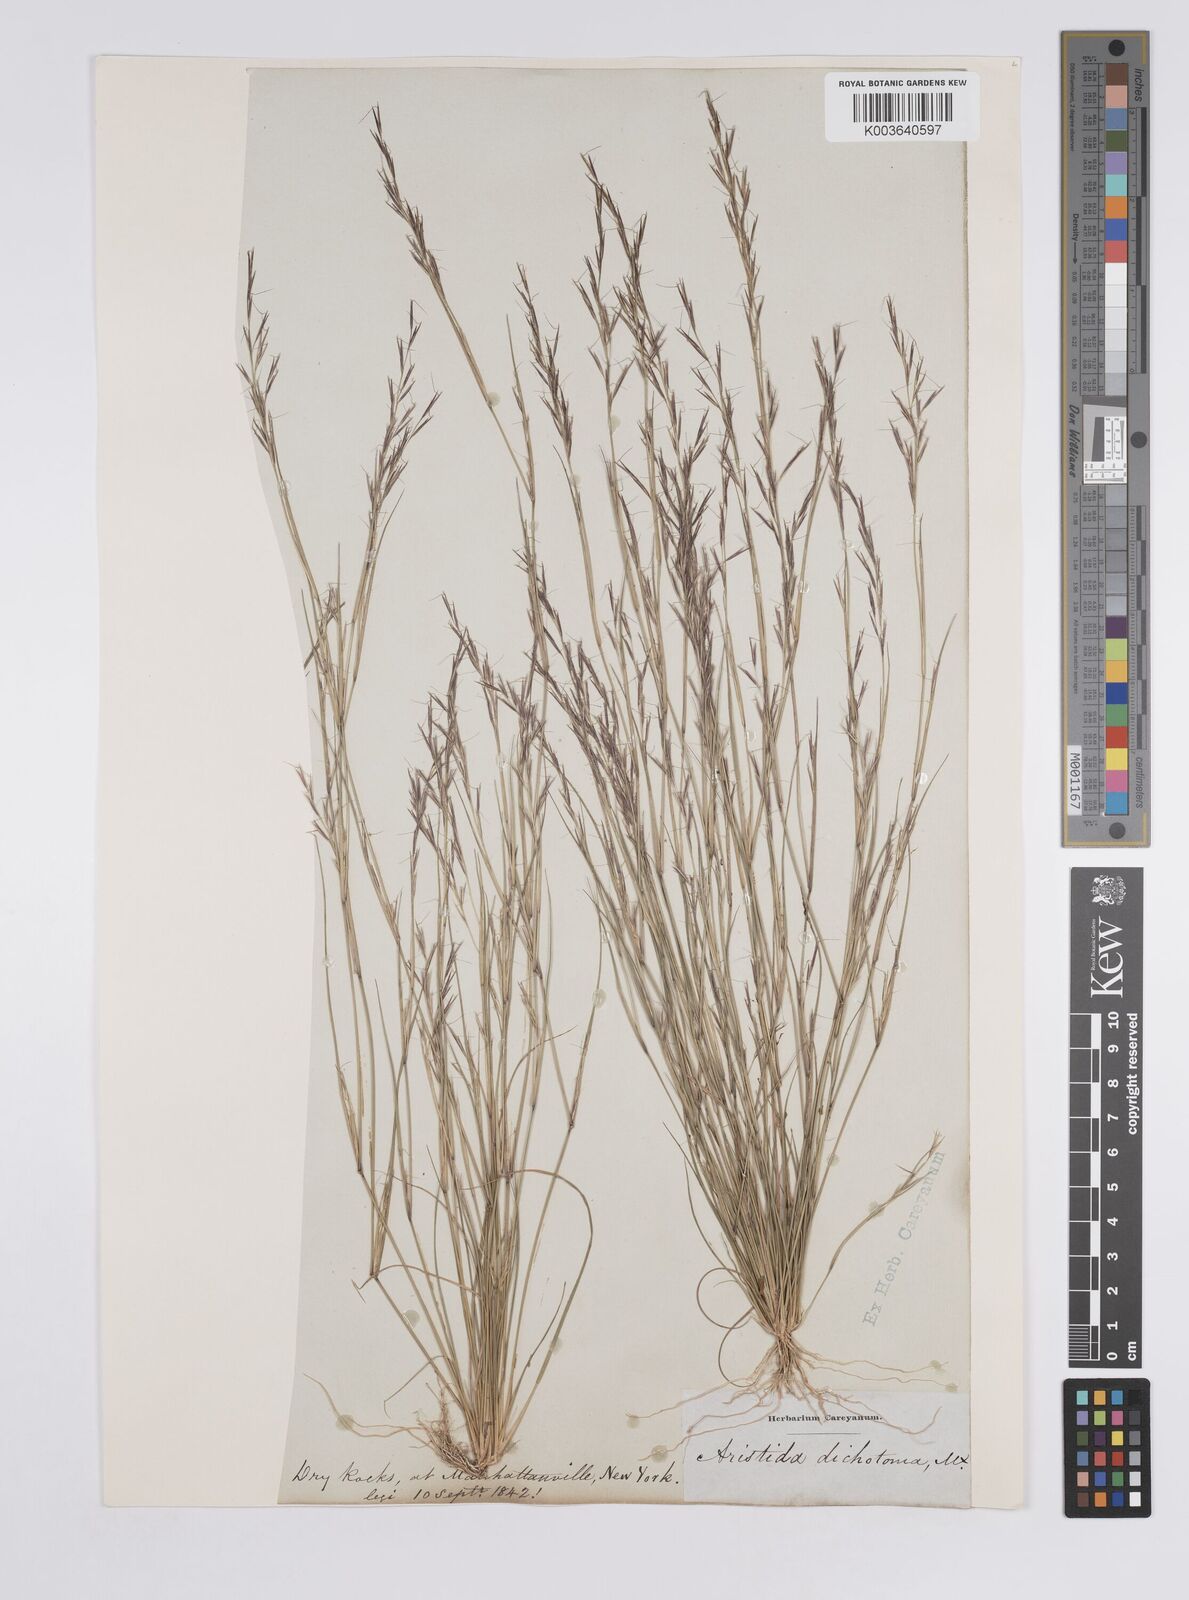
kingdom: Plantae
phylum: Tracheophyta
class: Liliopsida
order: Poales
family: Poaceae
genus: Aristida
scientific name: Aristida dichotoma
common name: Churchmouse three-awn
